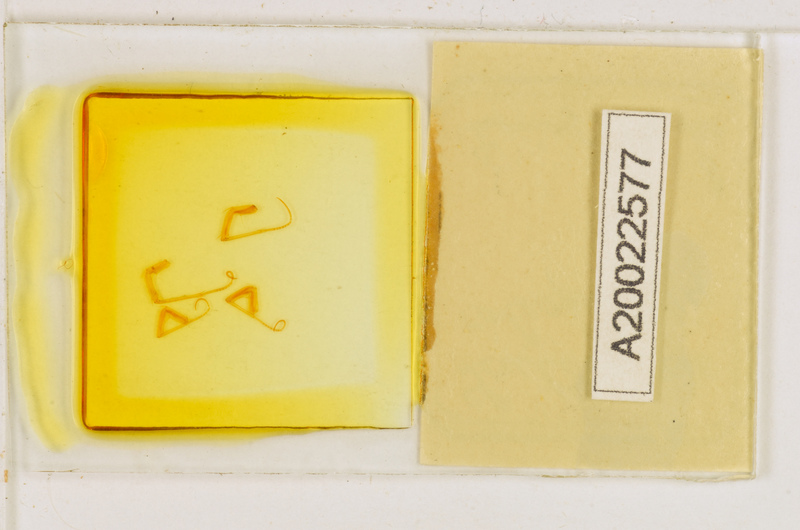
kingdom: Animalia
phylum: Arthropoda
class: Chilopoda
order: Scutigeromorpha
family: Scutigeridae
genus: Scutigera
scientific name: Scutigera coleoptrata
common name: House centipede
